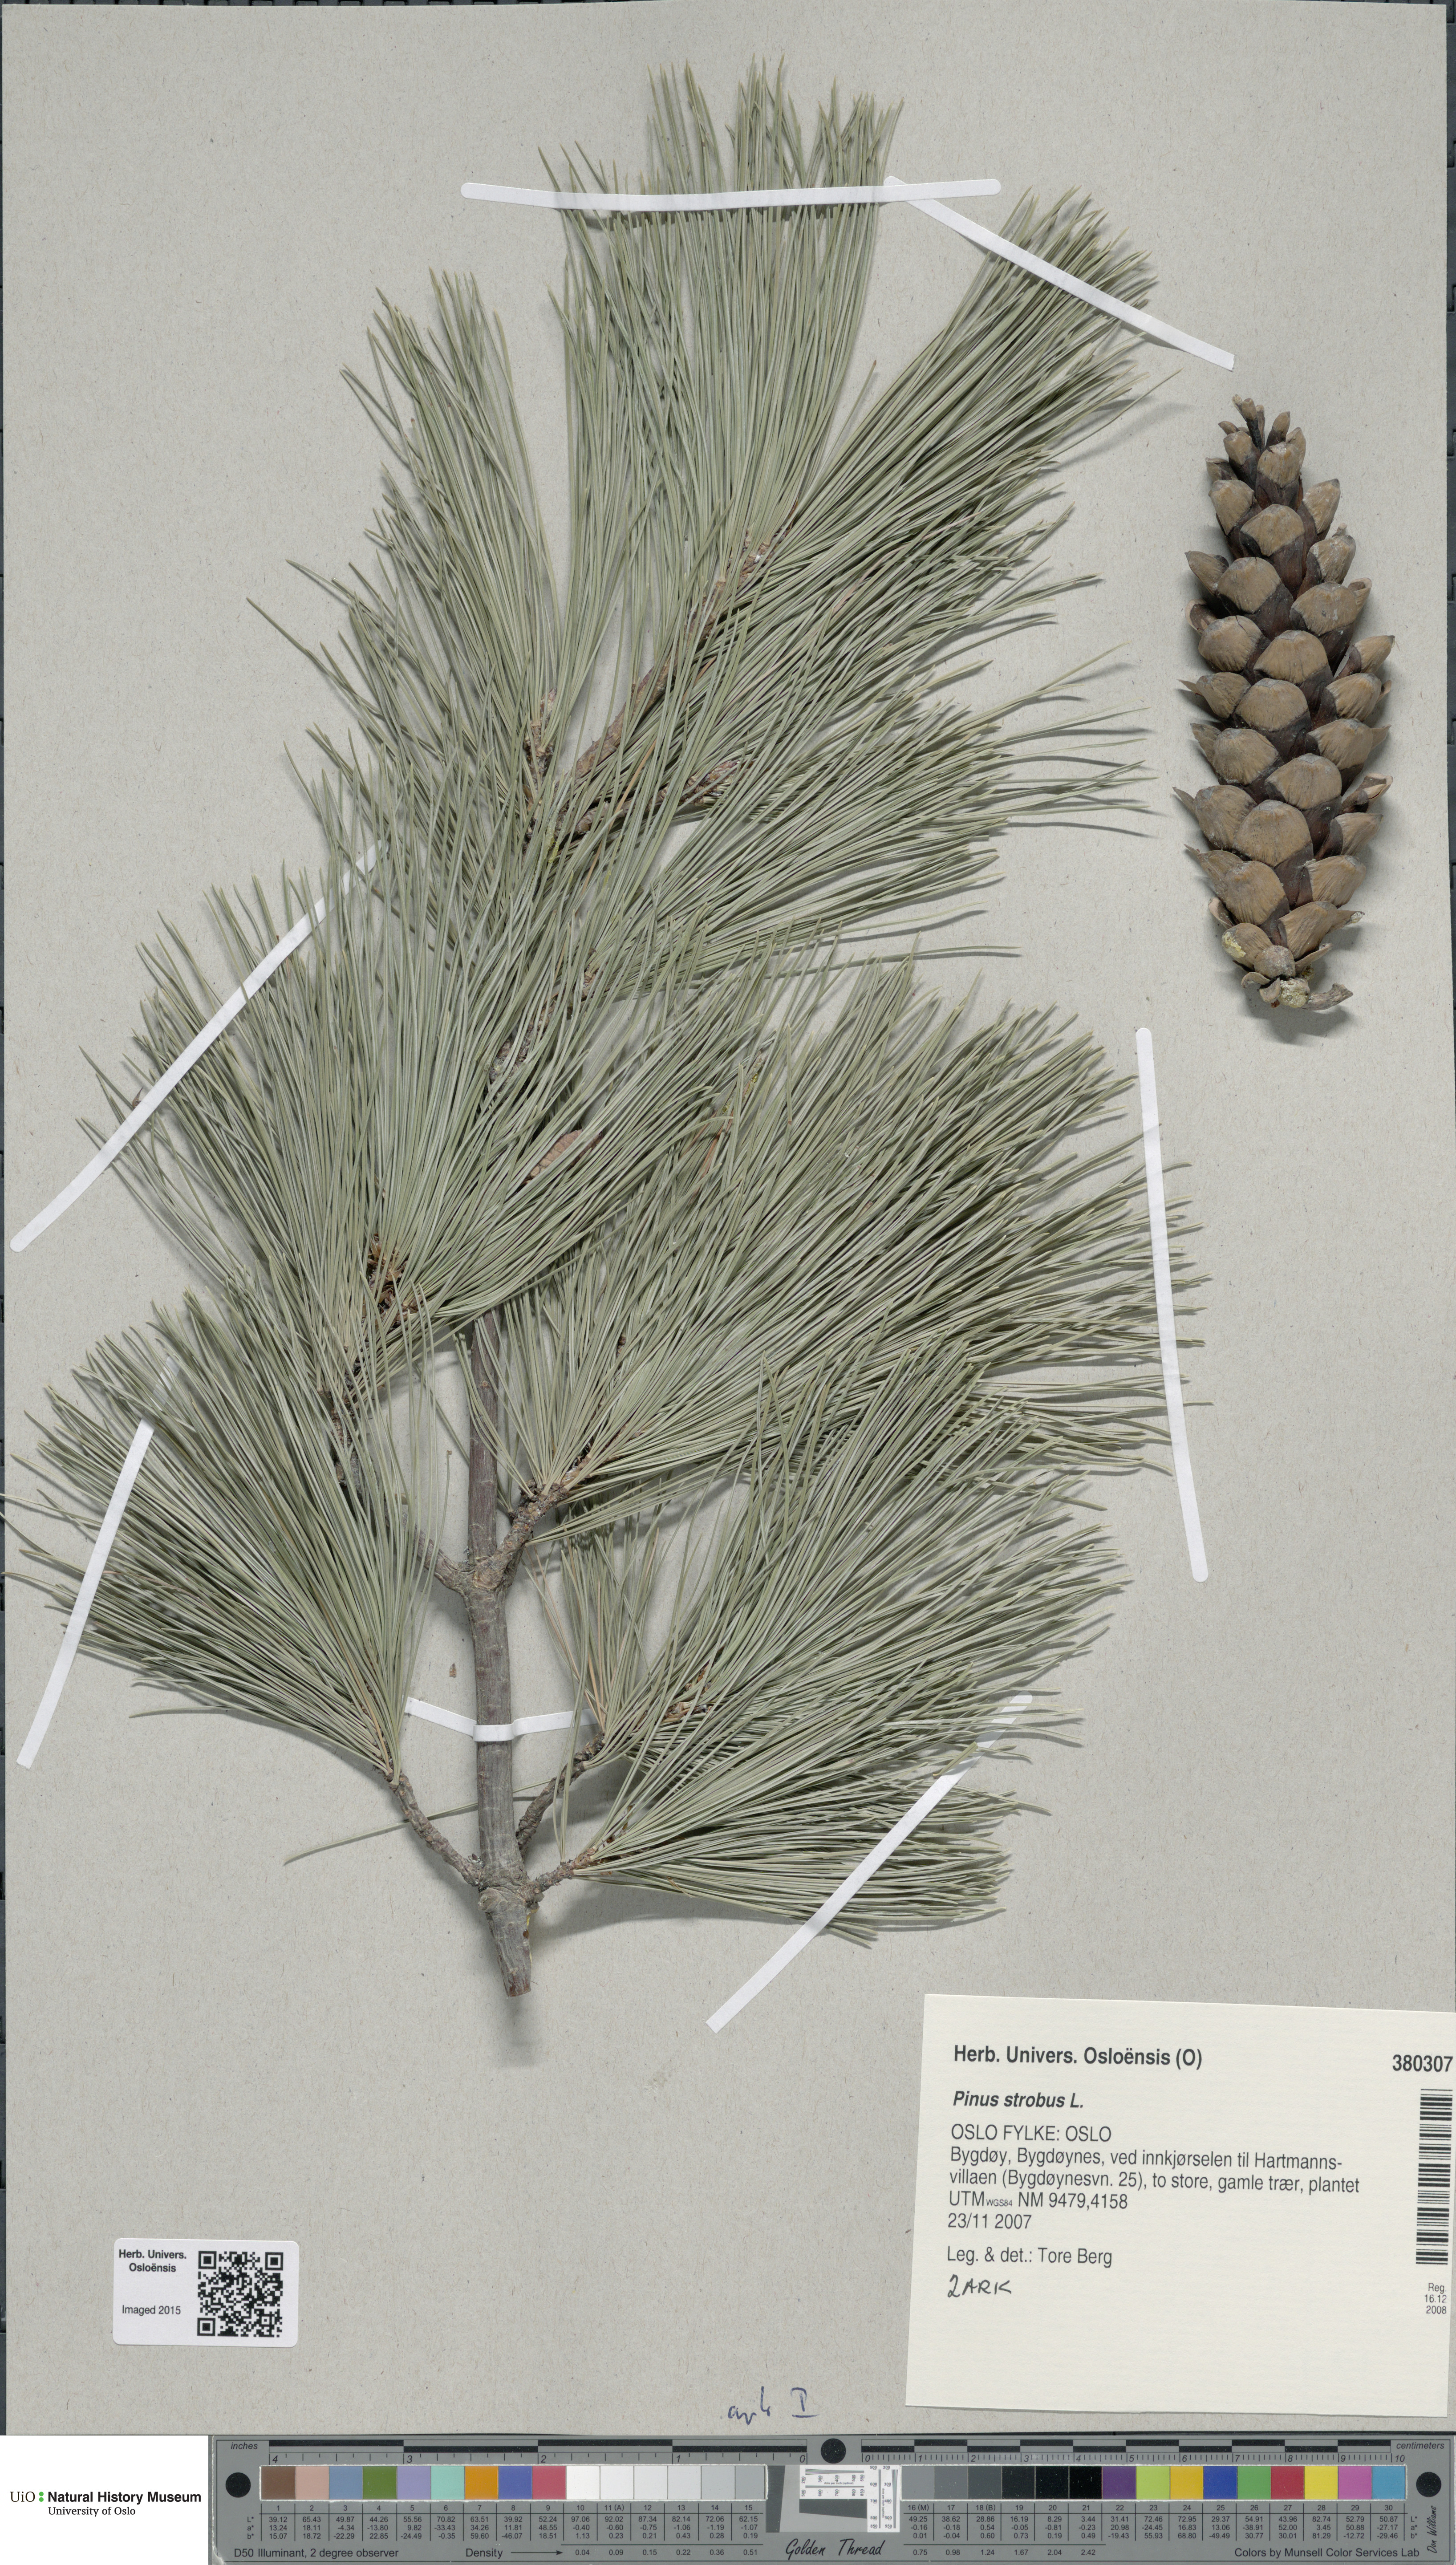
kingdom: Plantae
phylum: Tracheophyta
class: Pinopsida
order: Pinales
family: Pinaceae
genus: Pinus
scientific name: Pinus strobus
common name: Weymouth pine
